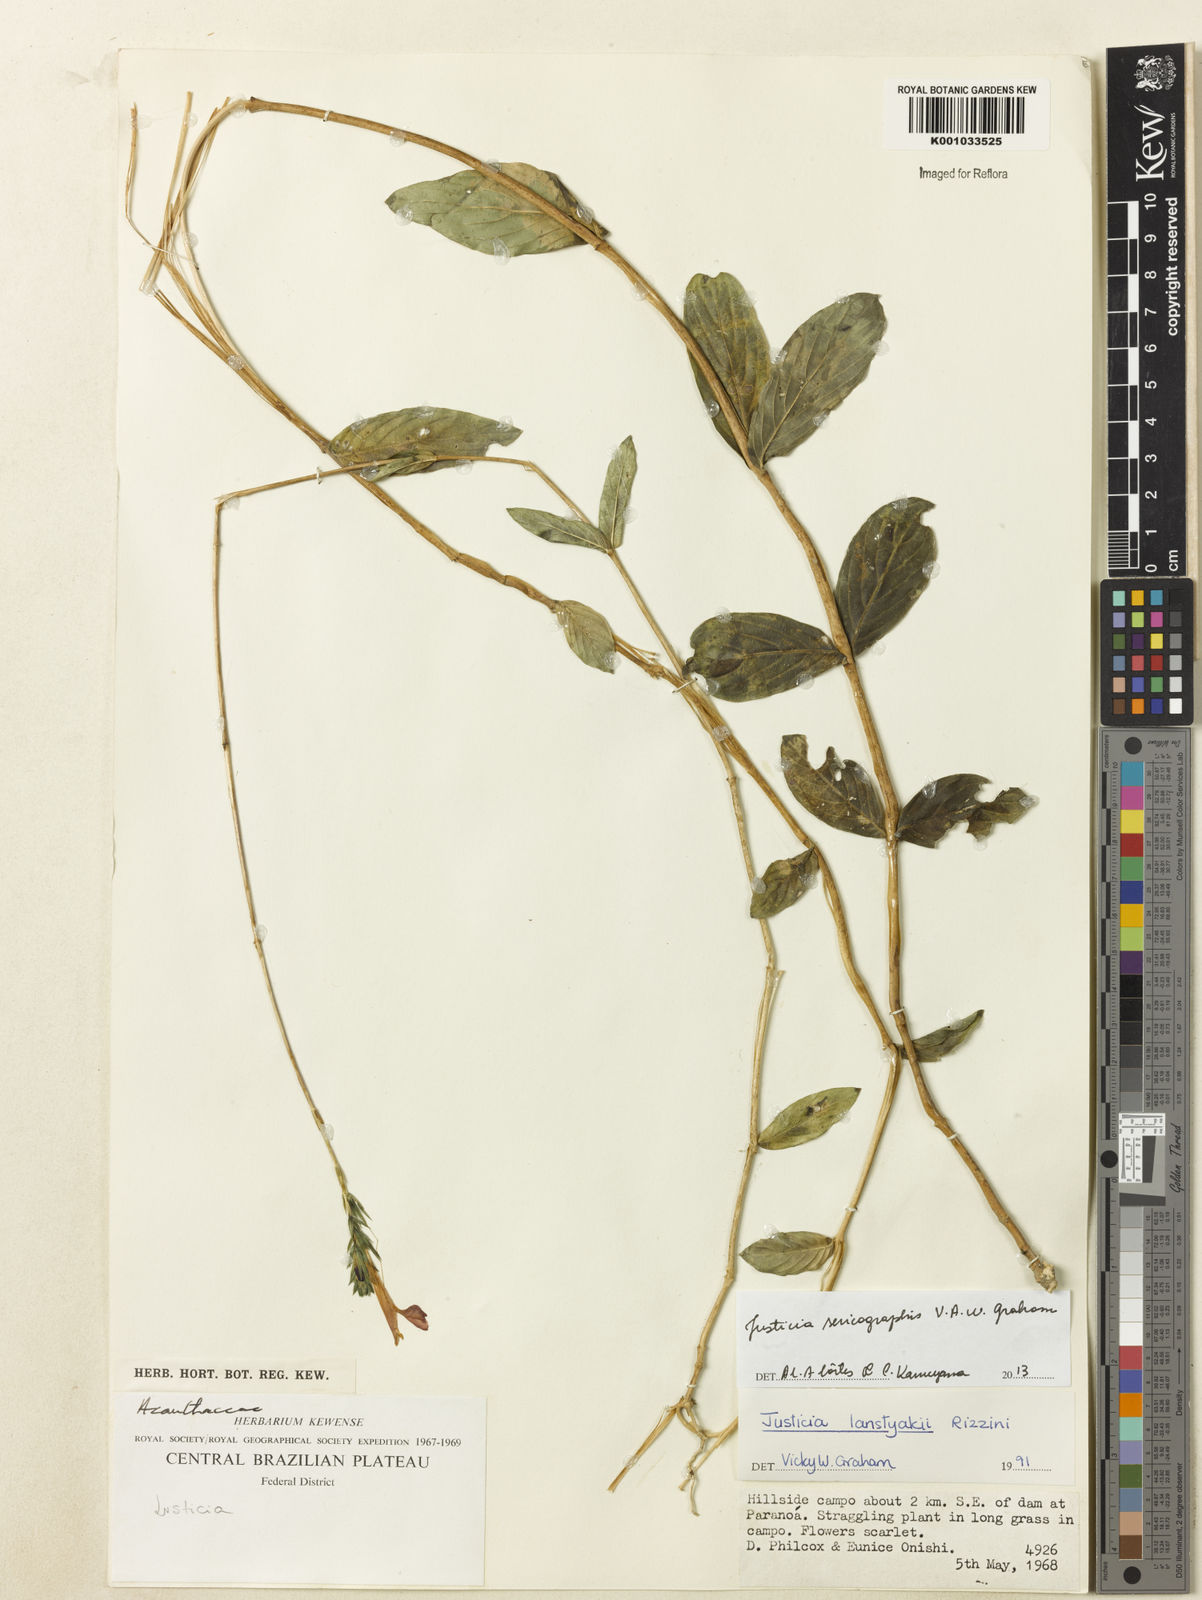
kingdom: Plantae
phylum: Tracheophyta
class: Magnoliopsida
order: Lamiales
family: Acanthaceae
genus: Dianthera
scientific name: Dianthera rigida
